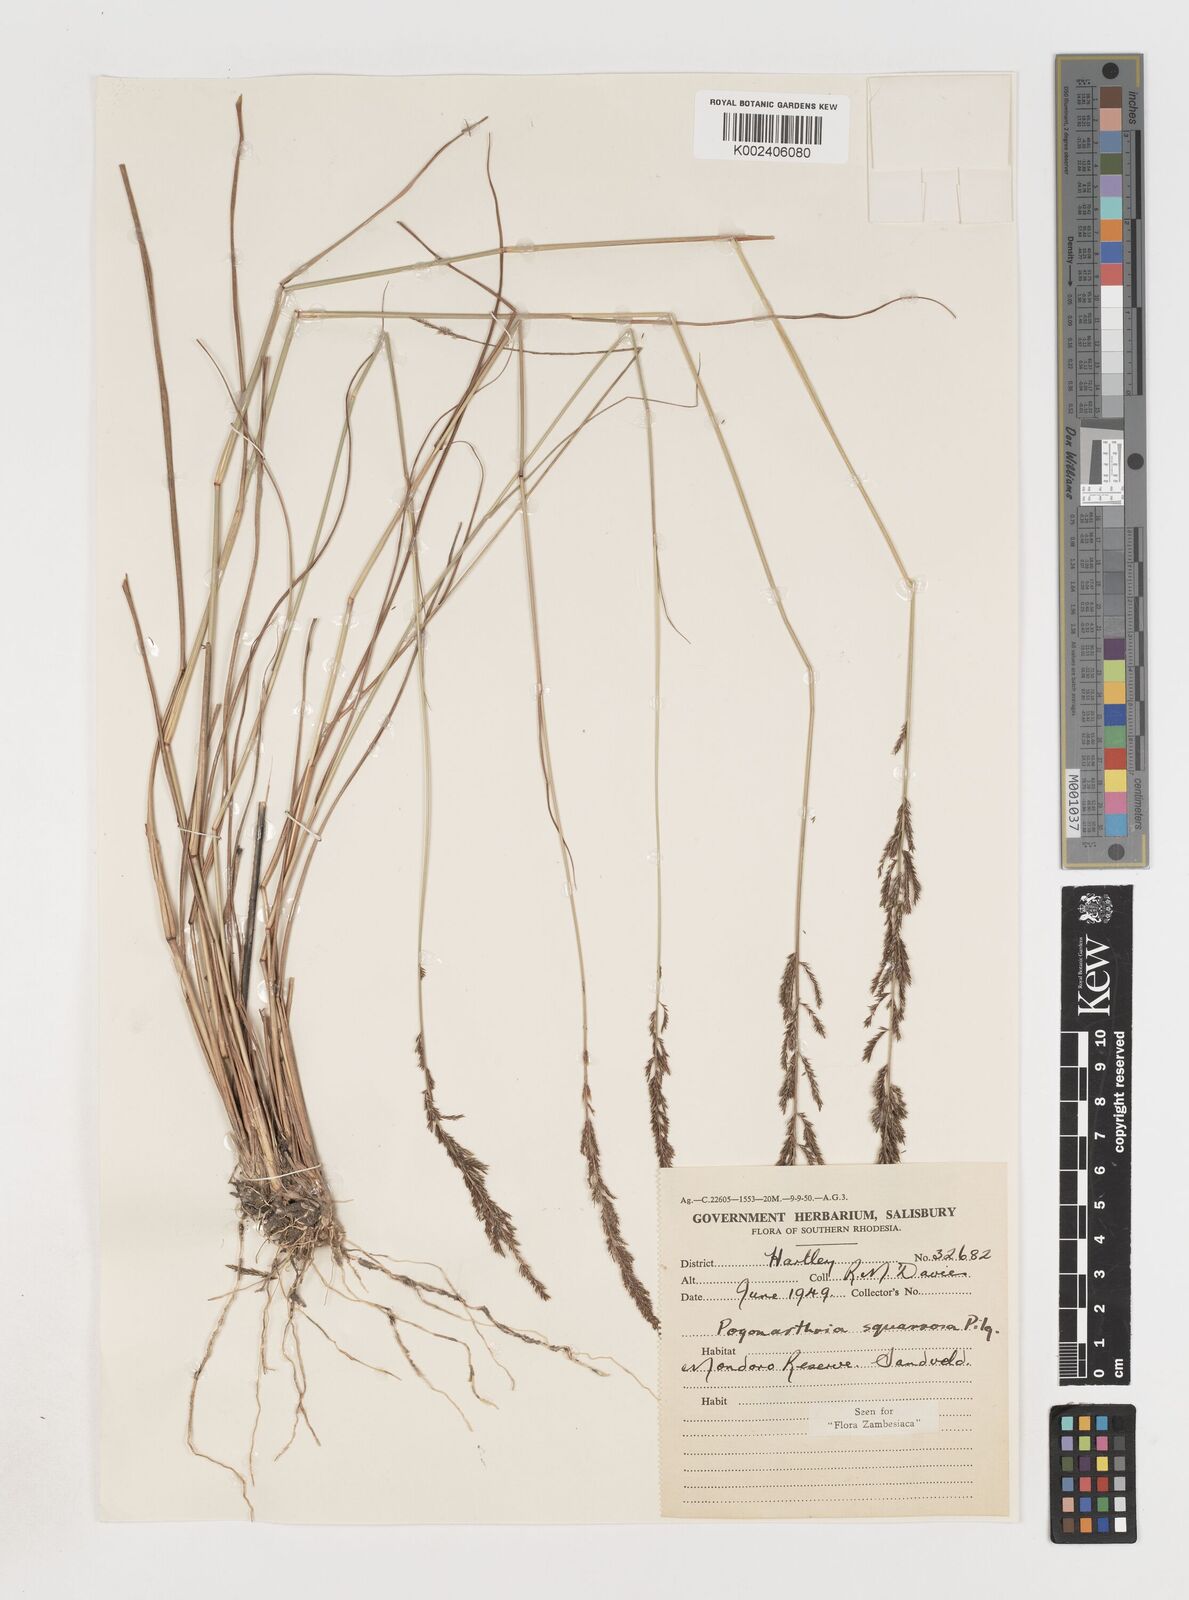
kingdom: Plantae
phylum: Tracheophyta
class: Liliopsida
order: Poales
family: Poaceae
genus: Pogonarthria
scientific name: Pogonarthria squarrosa
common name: Grass
